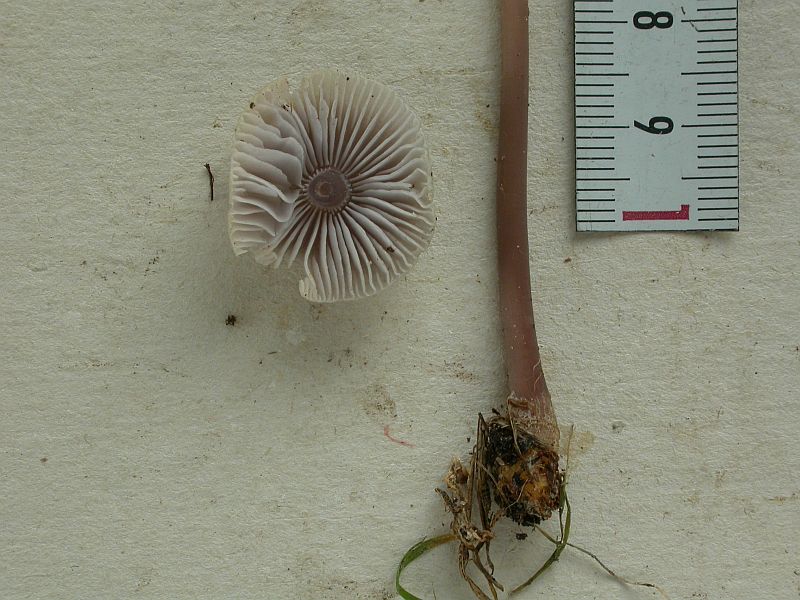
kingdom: Fungi
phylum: Basidiomycota
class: Agaricomycetes
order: Agaricales
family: Mycenaceae
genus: Mycena
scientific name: Mycena luteovariegata
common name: lillagul huesvamp
